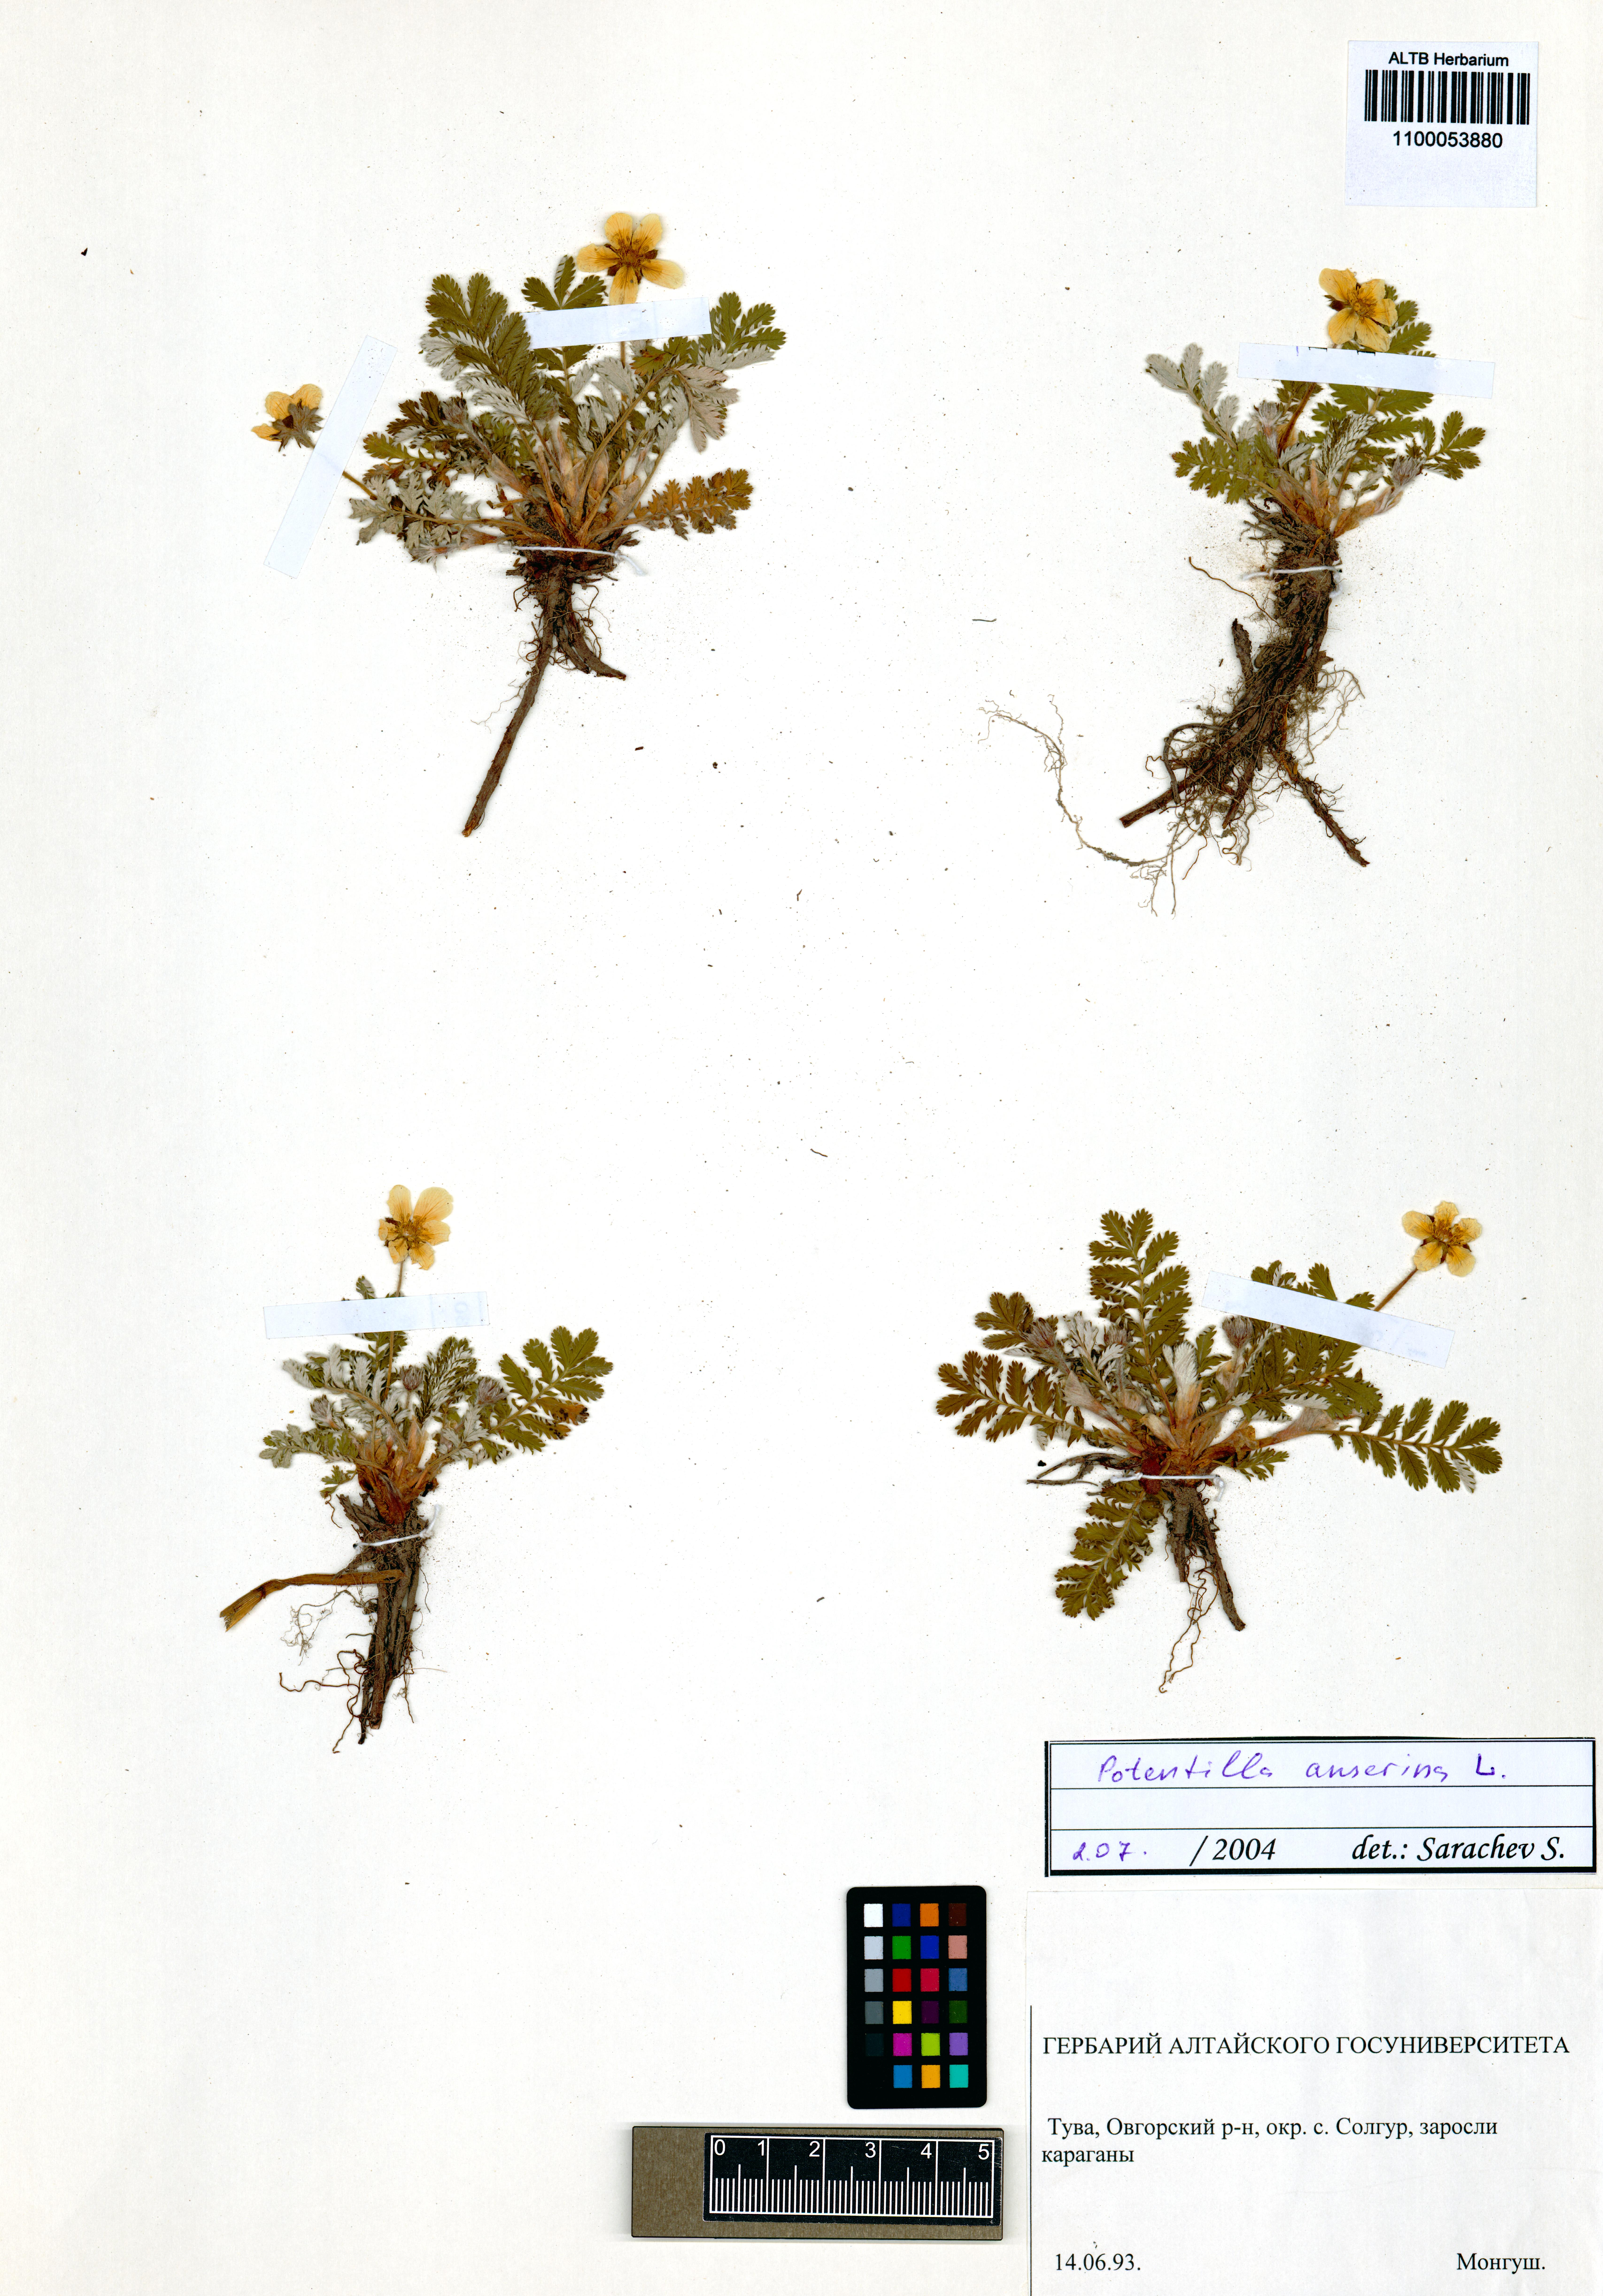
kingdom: Plantae
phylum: Tracheophyta
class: Magnoliopsida
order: Rosales
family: Rosaceae
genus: Argentina
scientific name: Argentina anserina
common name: Common silverweed
